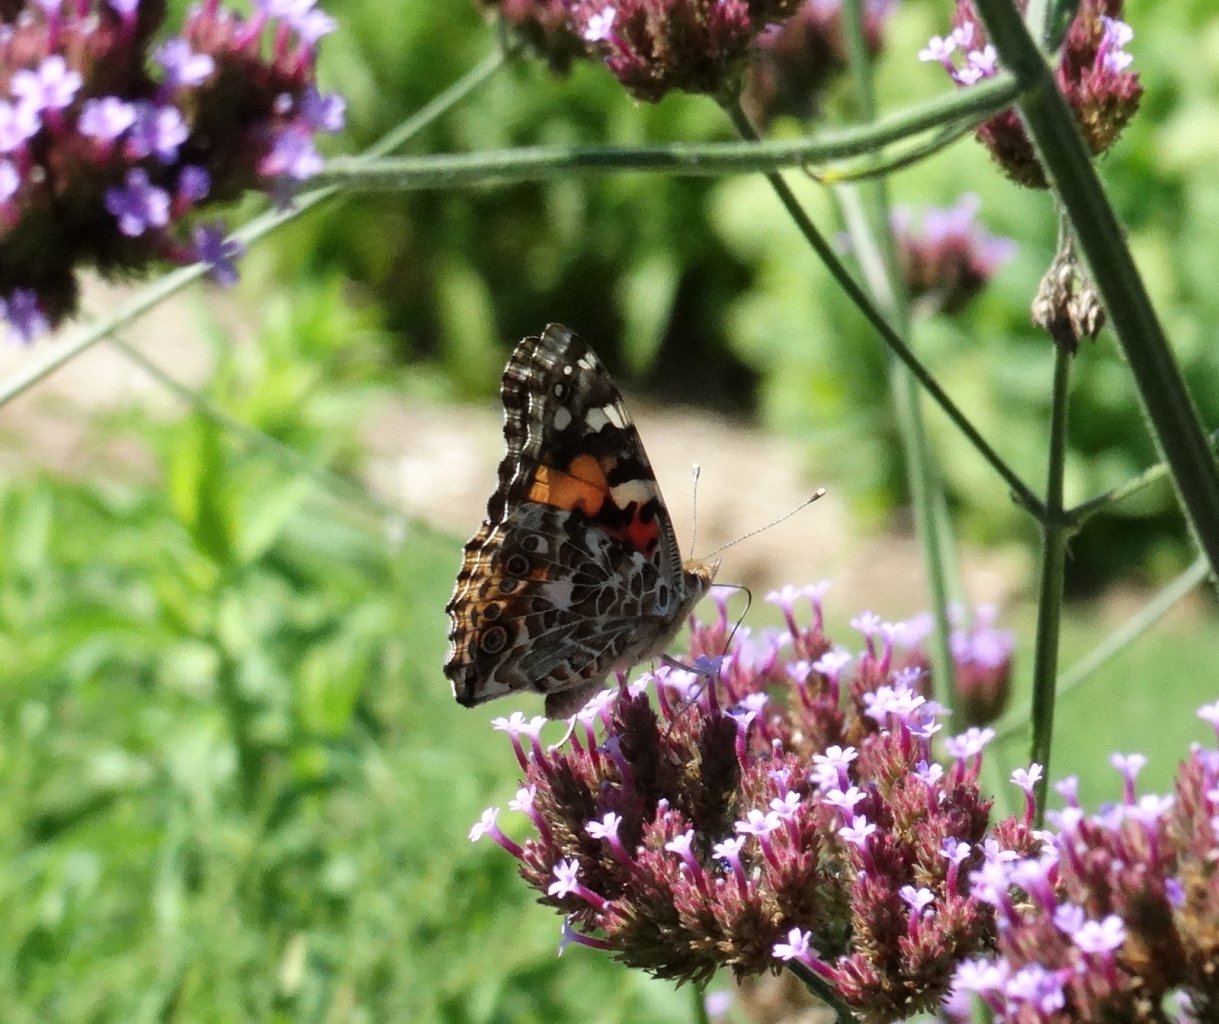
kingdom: Animalia
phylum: Arthropoda
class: Insecta
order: Lepidoptera
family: Nymphalidae
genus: Vanessa
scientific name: Vanessa cardui
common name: Painted Lady
